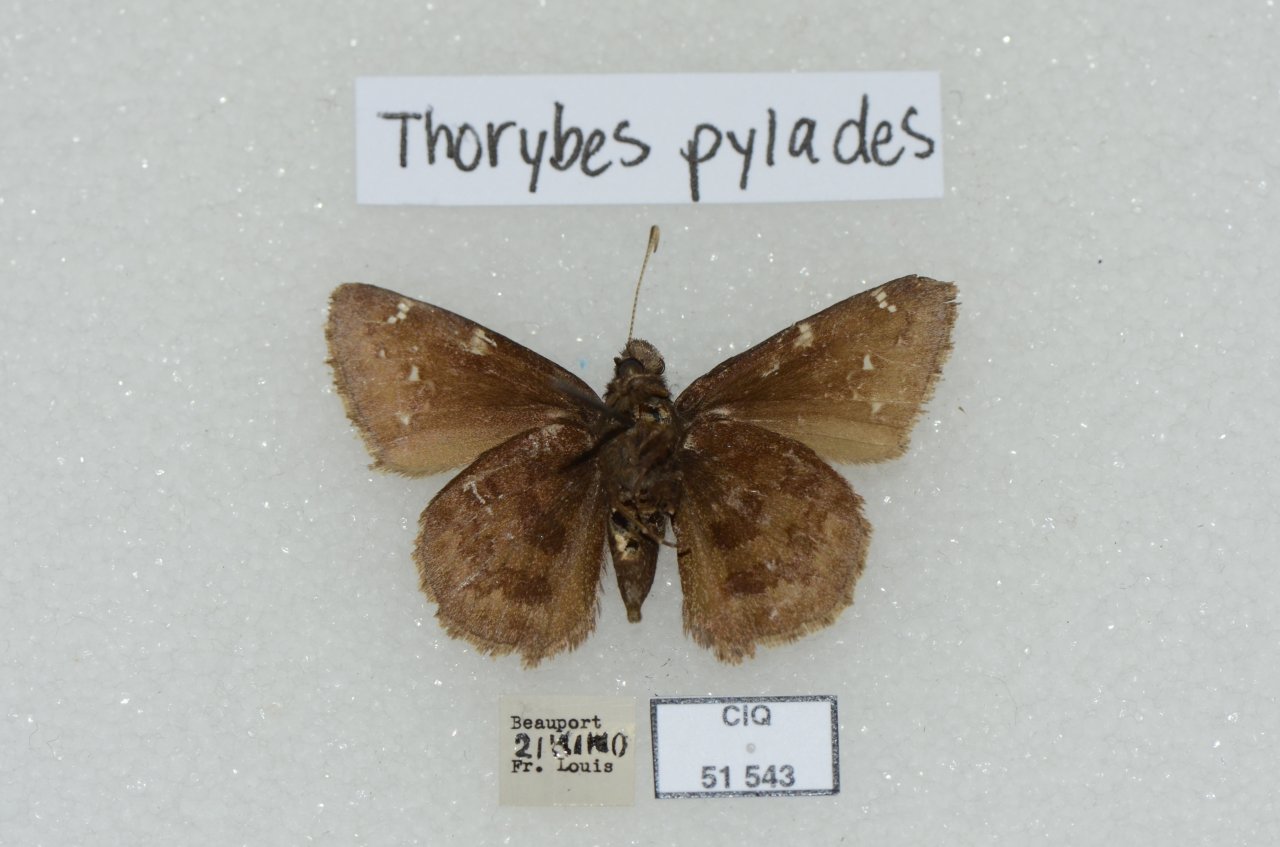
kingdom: Animalia
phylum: Arthropoda
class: Insecta
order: Lepidoptera
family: Hesperiidae
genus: Autochton
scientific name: Autochton
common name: Northern Cloudywing
